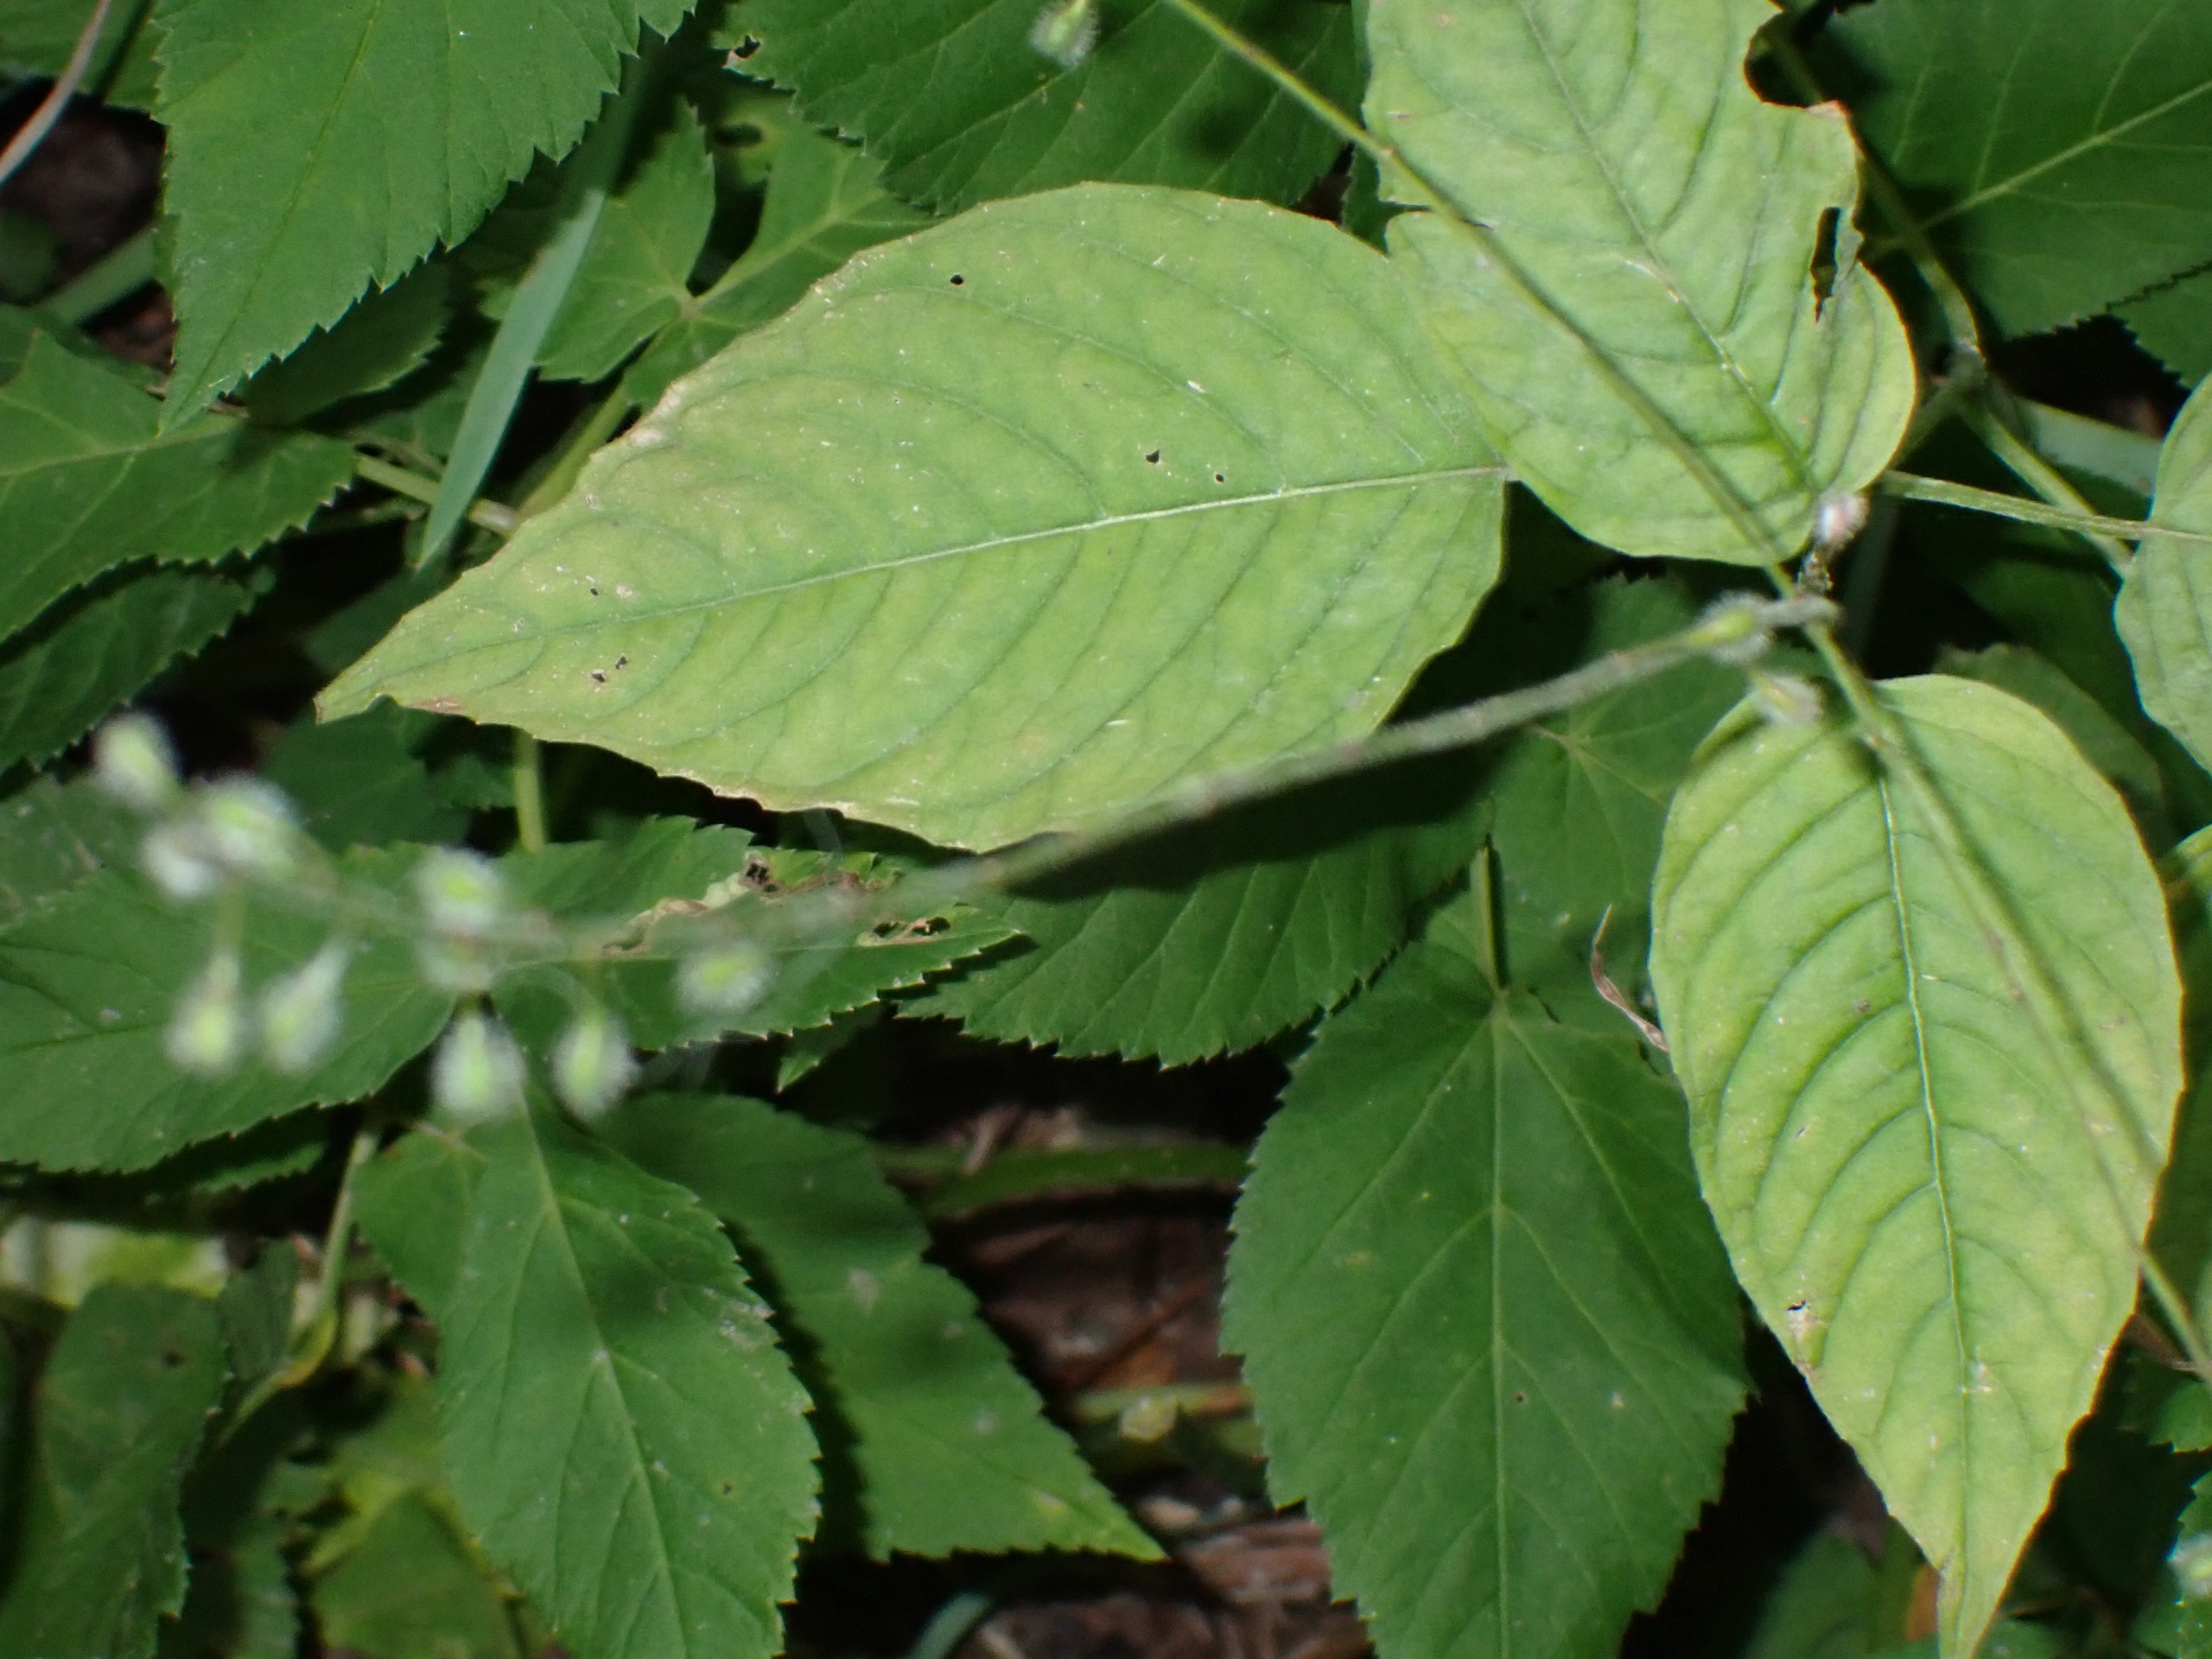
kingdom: Plantae
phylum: Tracheophyta
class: Magnoliopsida
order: Myrtales
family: Onagraceae
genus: Circaea
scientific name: Circaea lutetiana
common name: Dunet steffensurt
